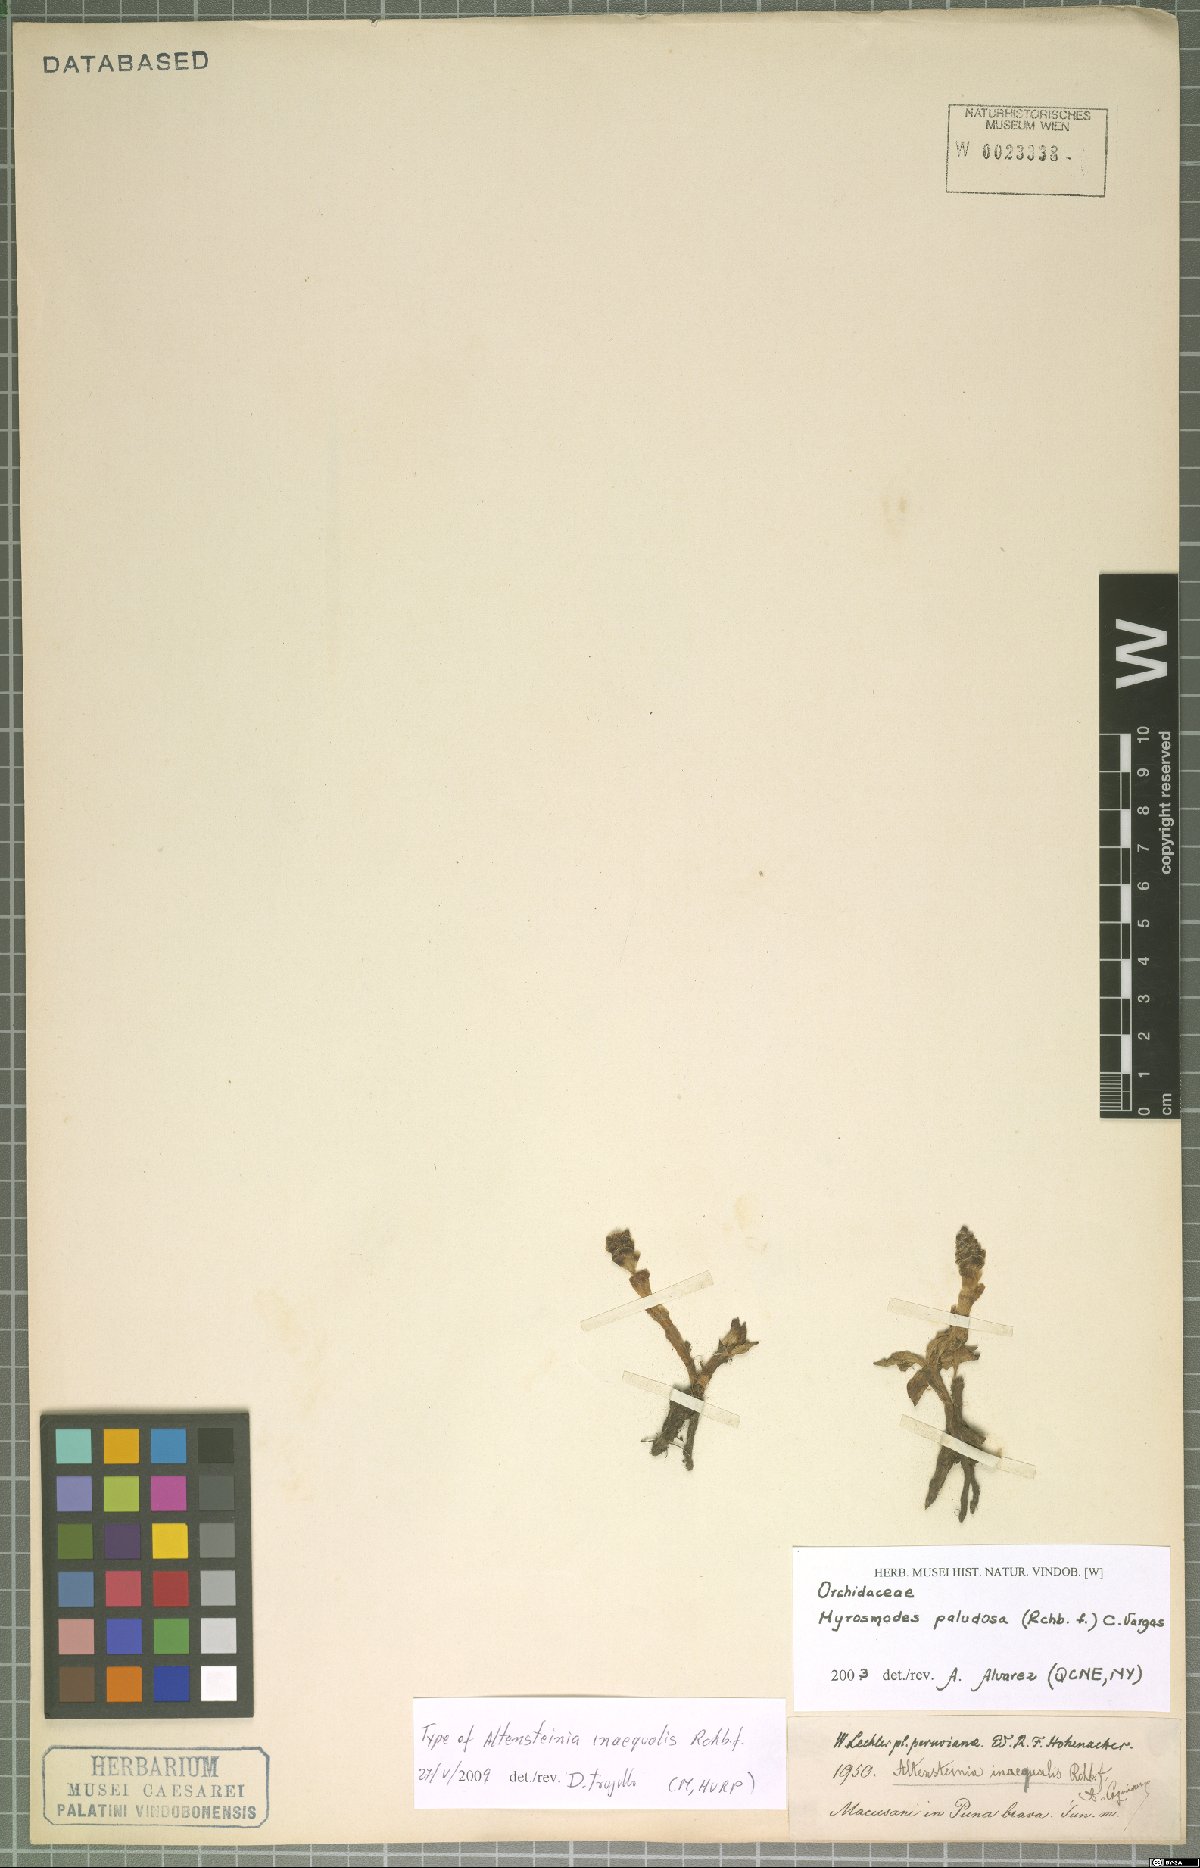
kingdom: Plantae
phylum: Tracheophyta
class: Liliopsida
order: Asparagales
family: Orchidaceae
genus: Myrosmodes
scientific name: Myrosmodes paludosa
